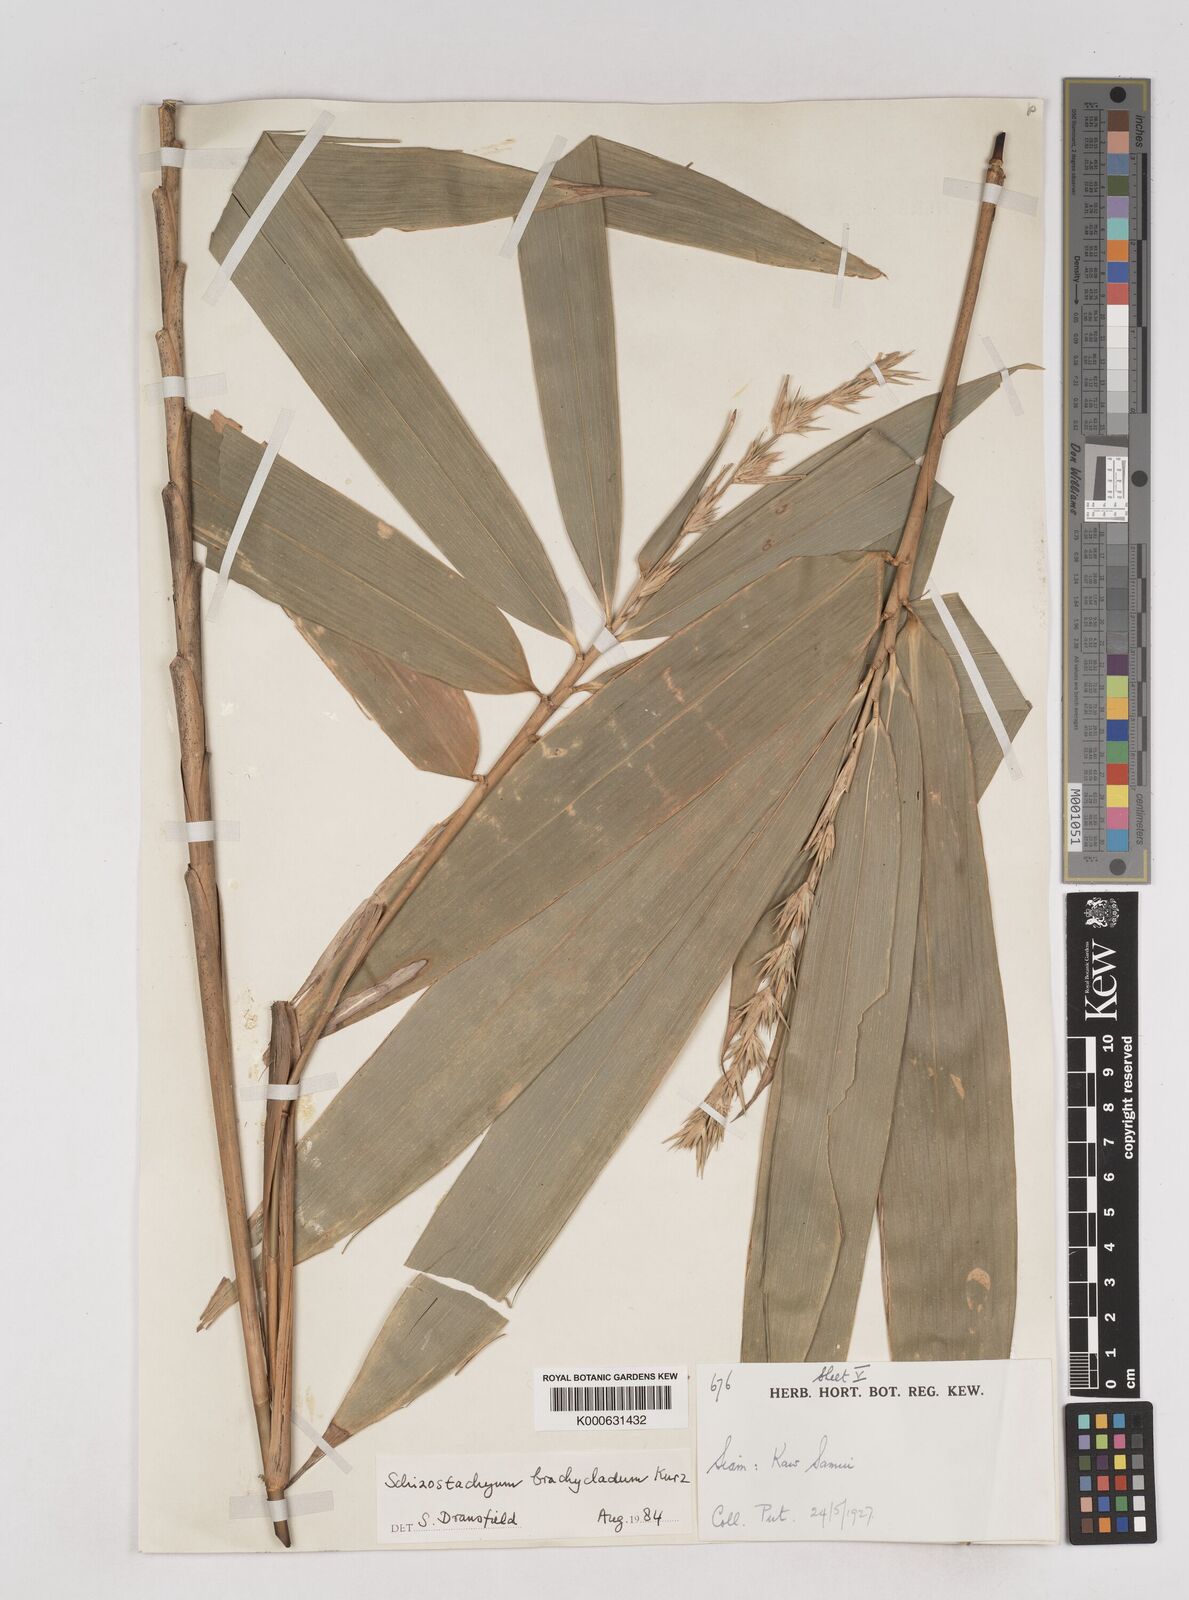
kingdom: Plantae
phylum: Tracheophyta
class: Liliopsida
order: Poales
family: Poaceae
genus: Schizostachyum
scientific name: Schizostachyum brachycladum
